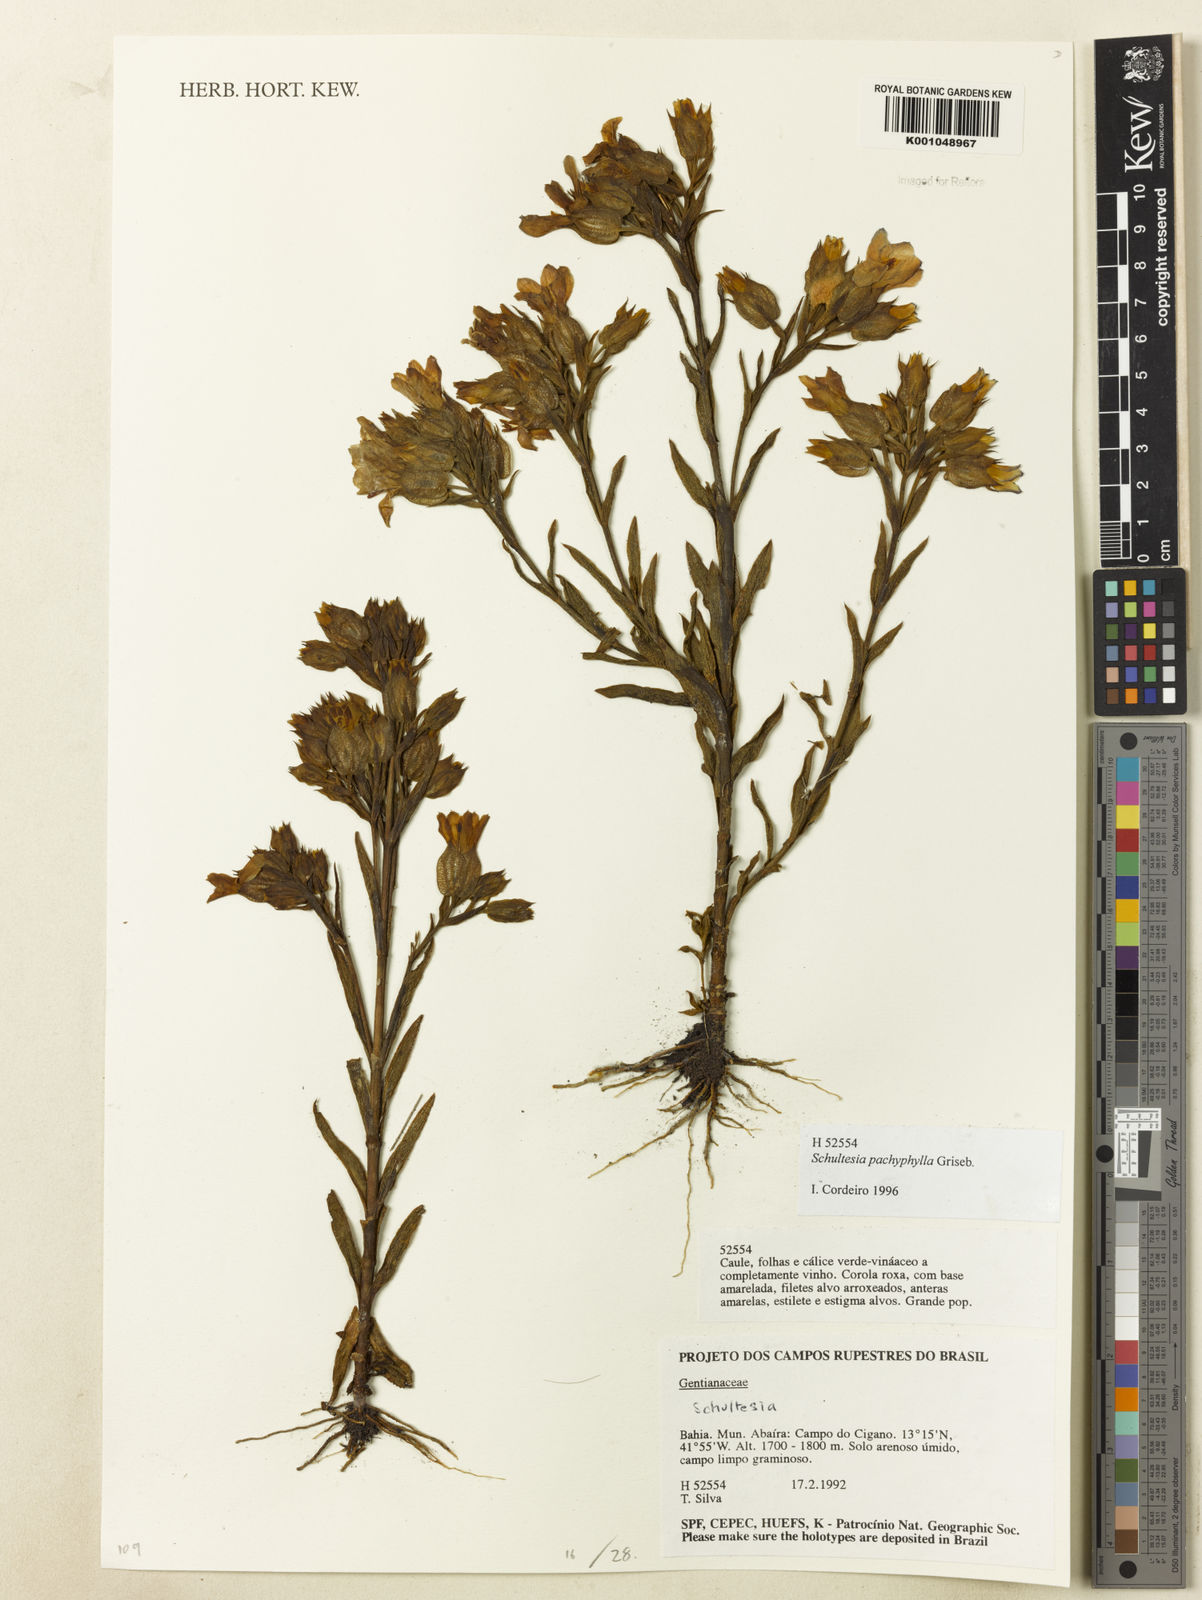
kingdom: Plantae
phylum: Tracheophyta
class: Magnoliopsida
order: Gentianales
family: Gentianaceae
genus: Schultesia
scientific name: Schultesia pachyphylla
